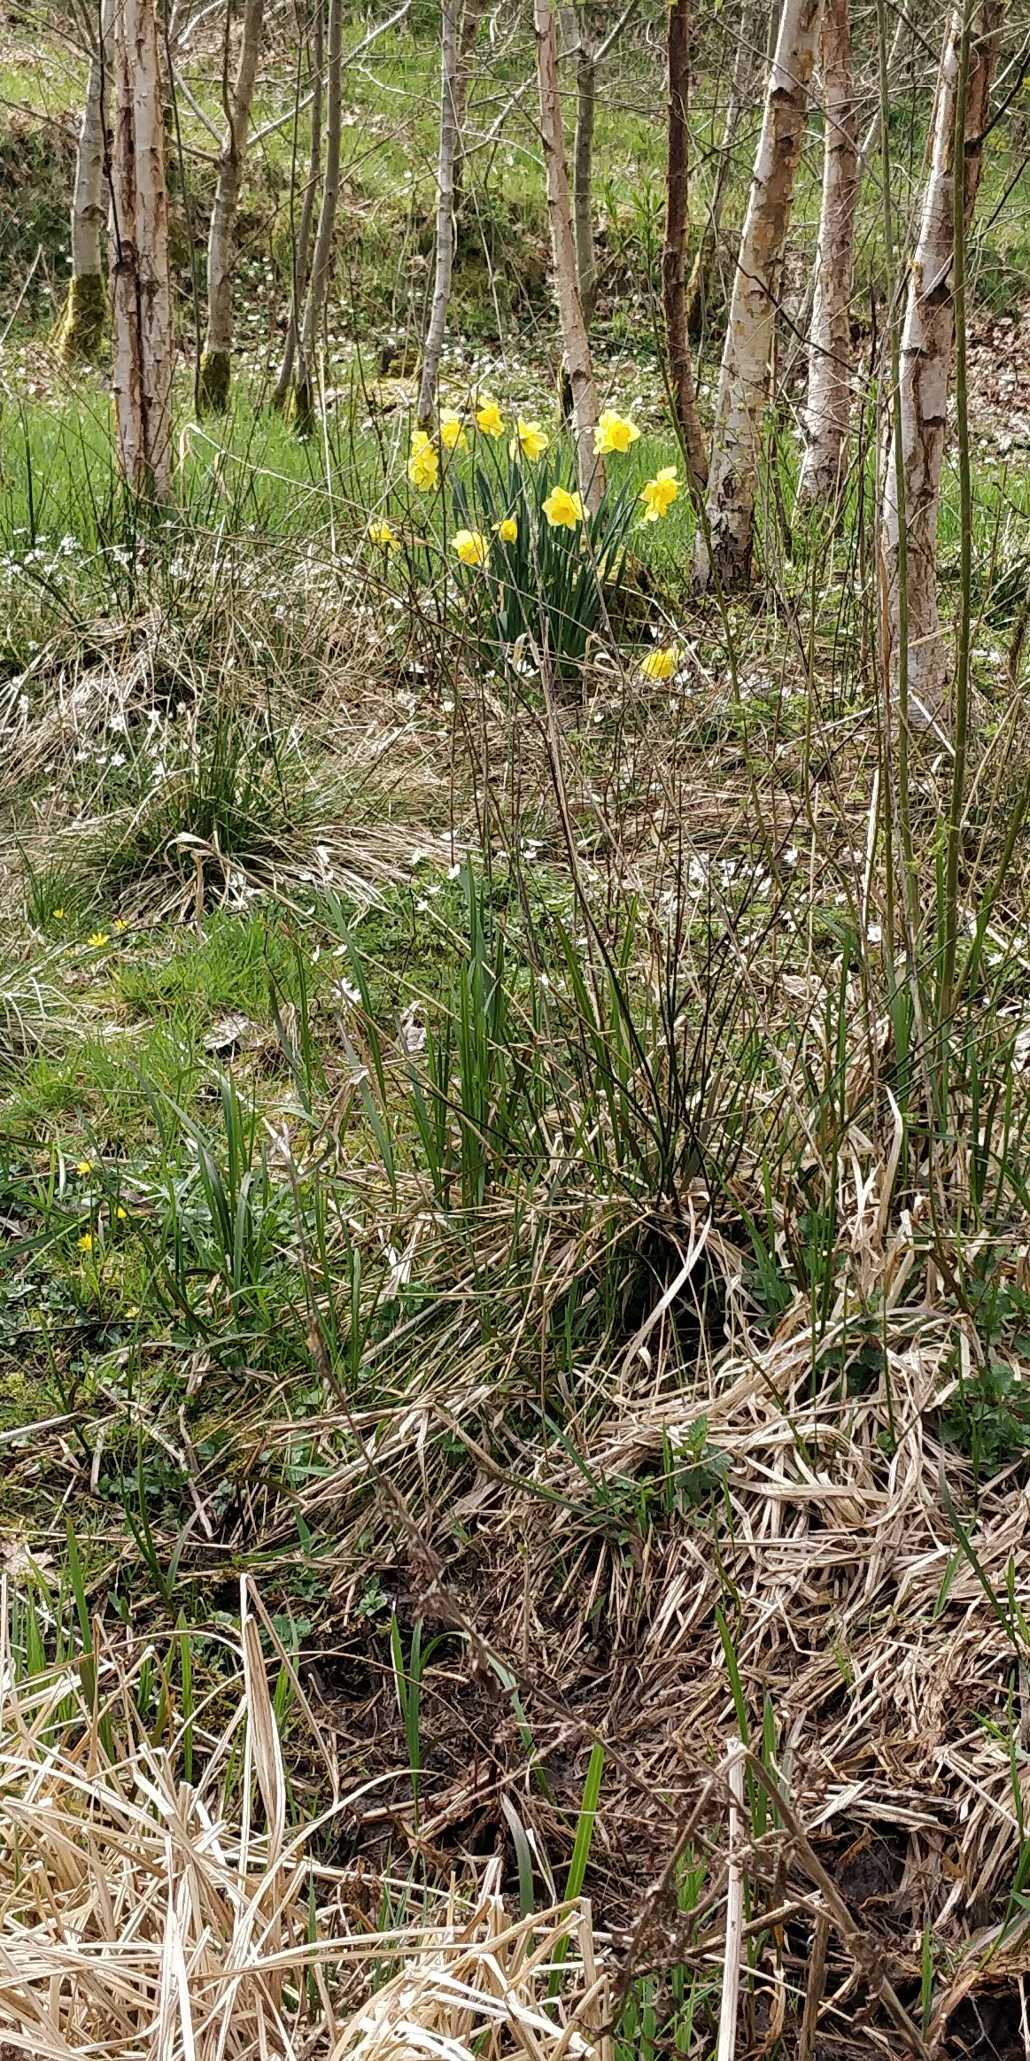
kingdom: Plantae
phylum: Tracheophyta
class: Liliopsida
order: Asparagales
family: Amaryllidaceae
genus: Narcissus
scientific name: Narcissus pseudonarcissus
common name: Påskelilje
